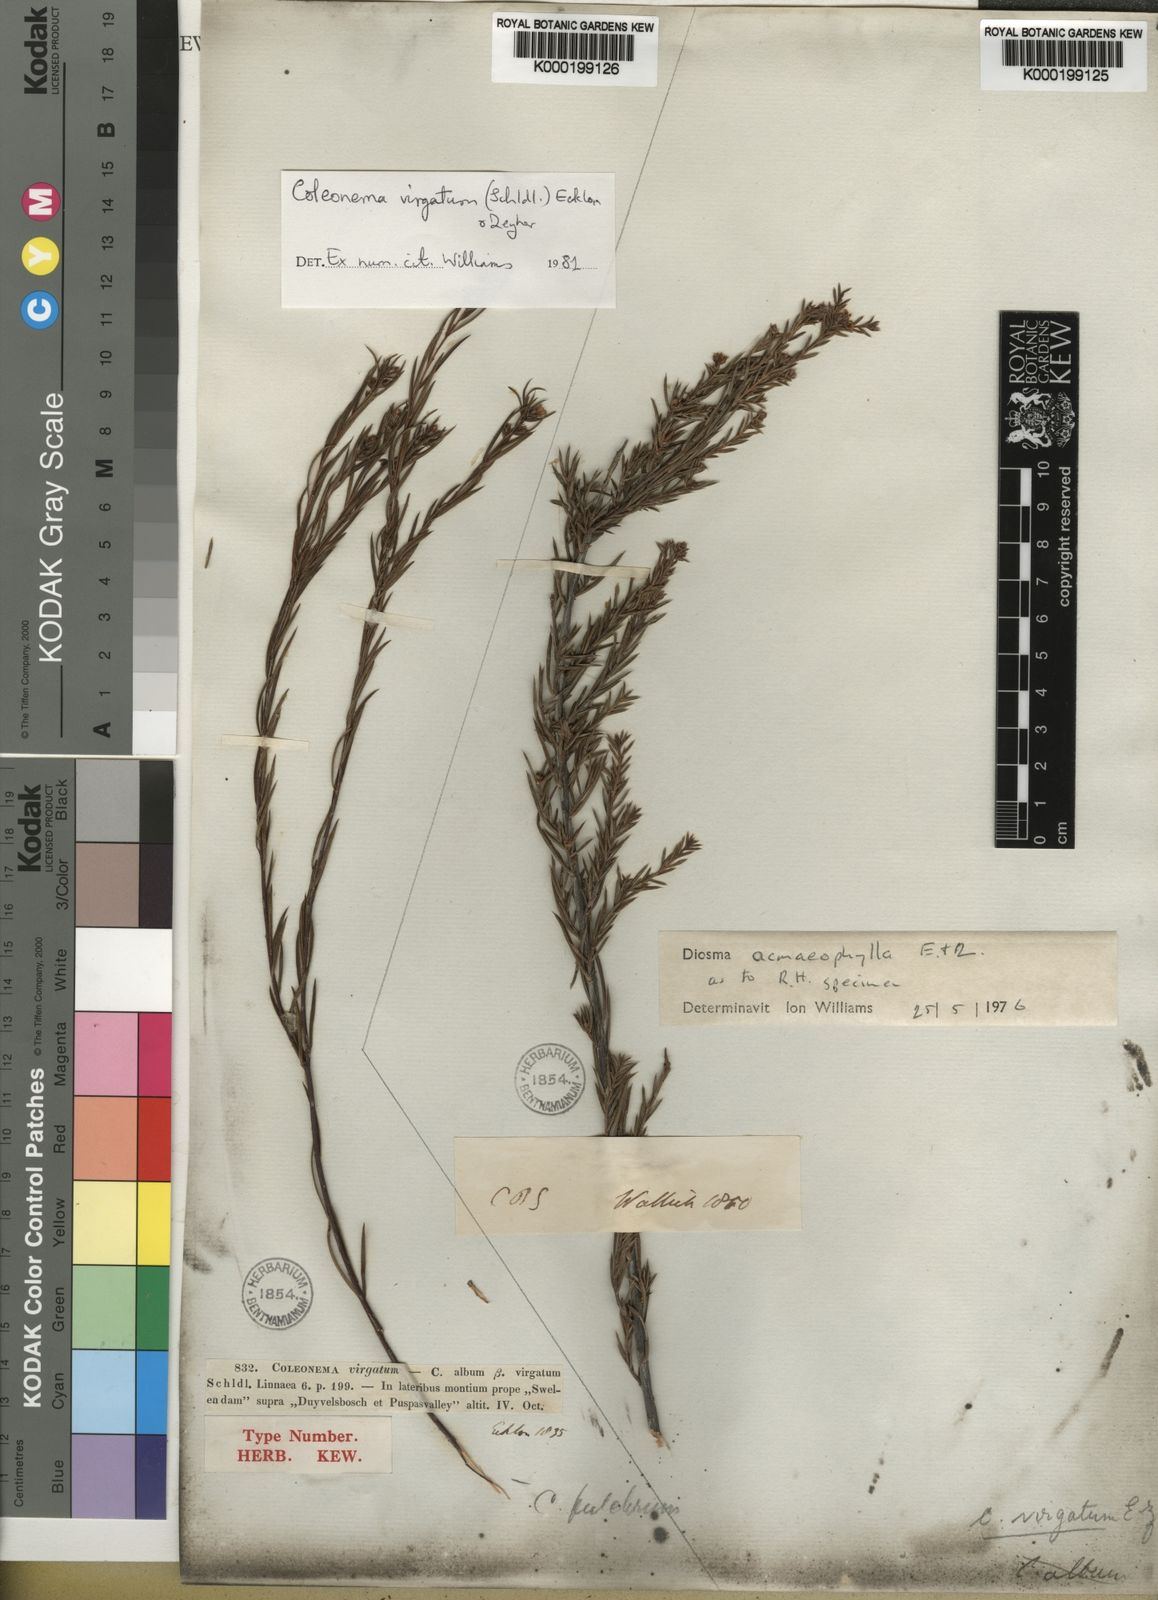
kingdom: Plantae
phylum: Tracheophyta
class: Magnoliopsida
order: Sapindales
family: Rutaceae
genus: Coleonema
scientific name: Coleonema virgatum
